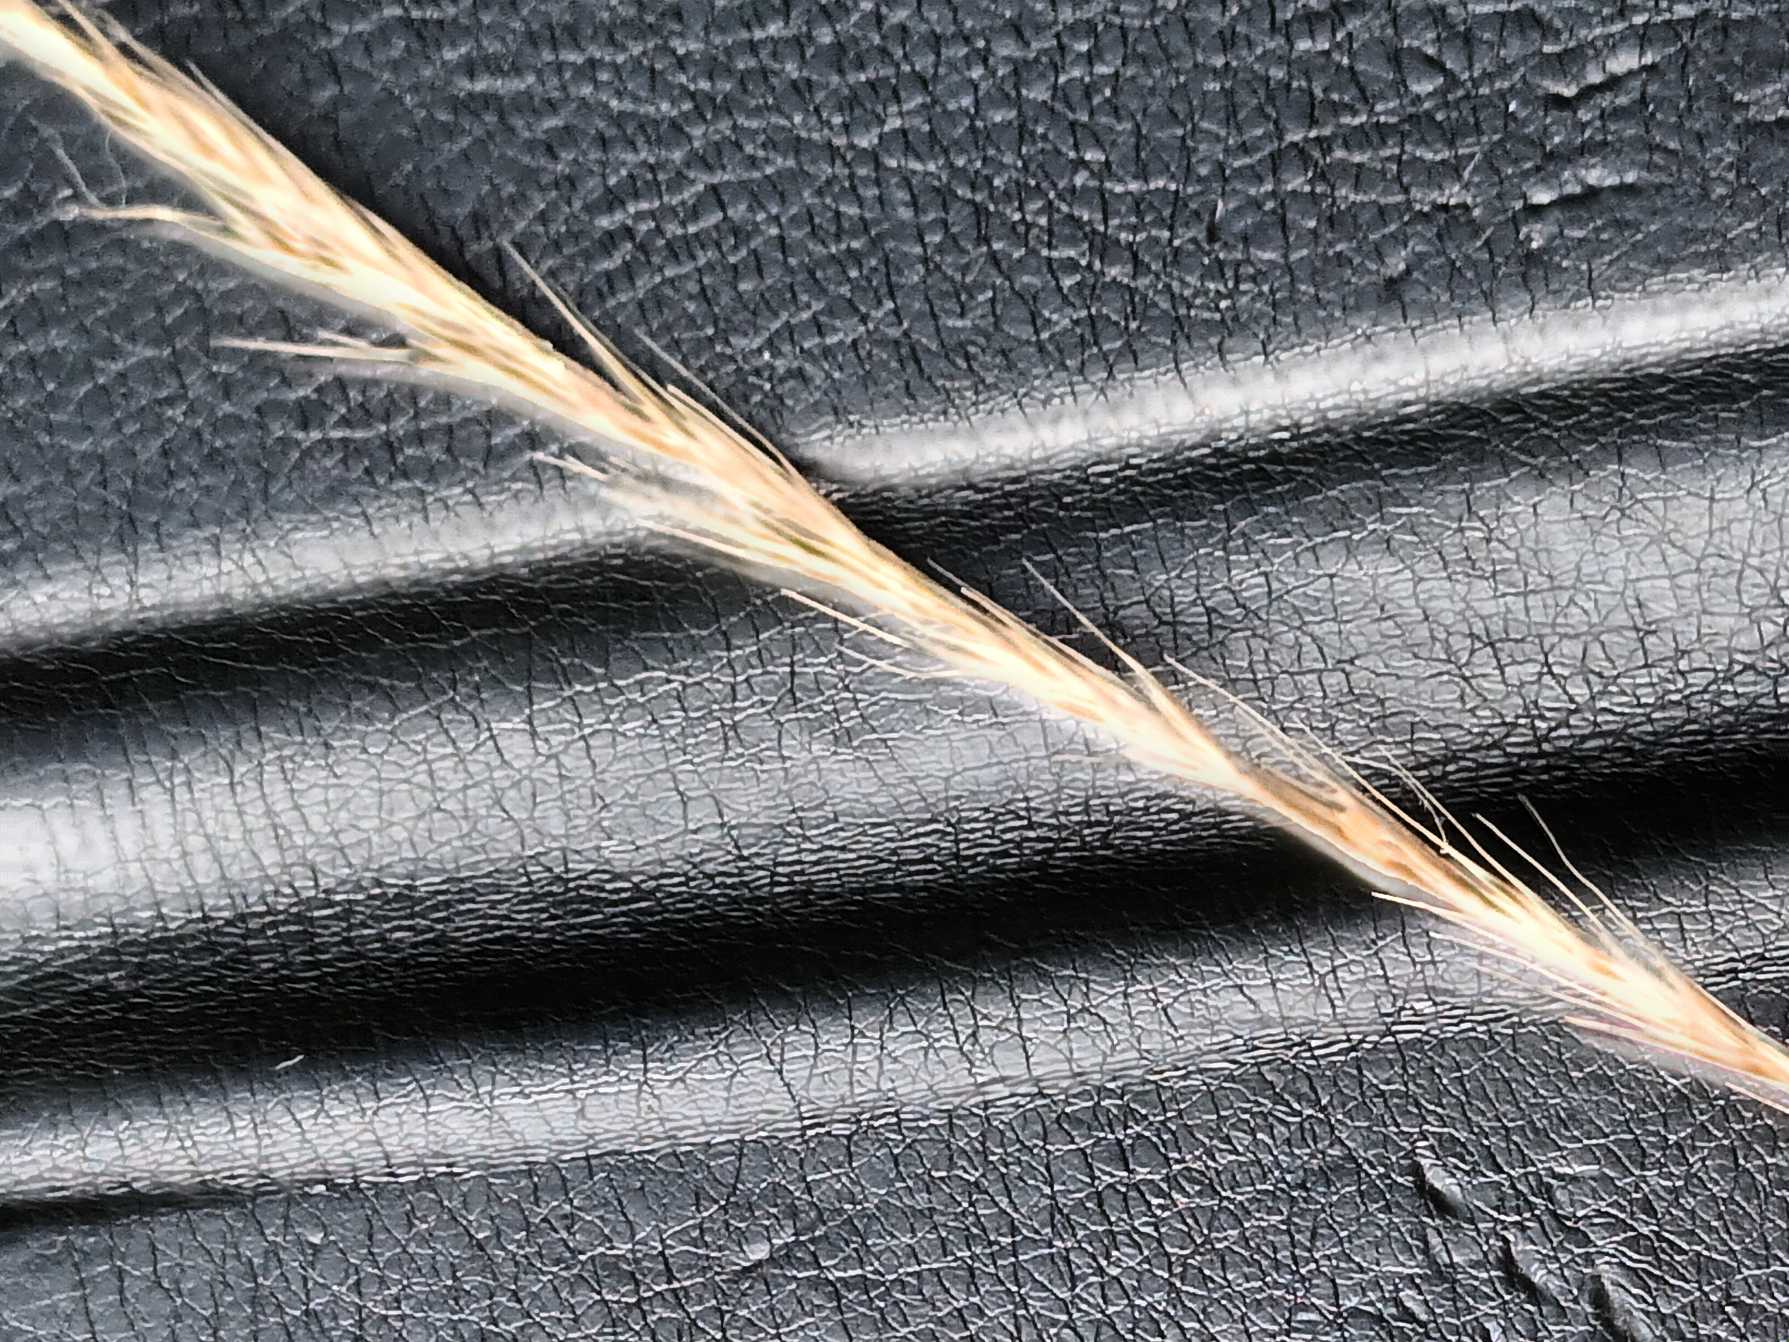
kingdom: Plantae
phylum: Tracheophyta
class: Liliopsida
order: Poales
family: Poaceae
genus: Festuca
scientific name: Festuca myuros
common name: Stor væselhale
